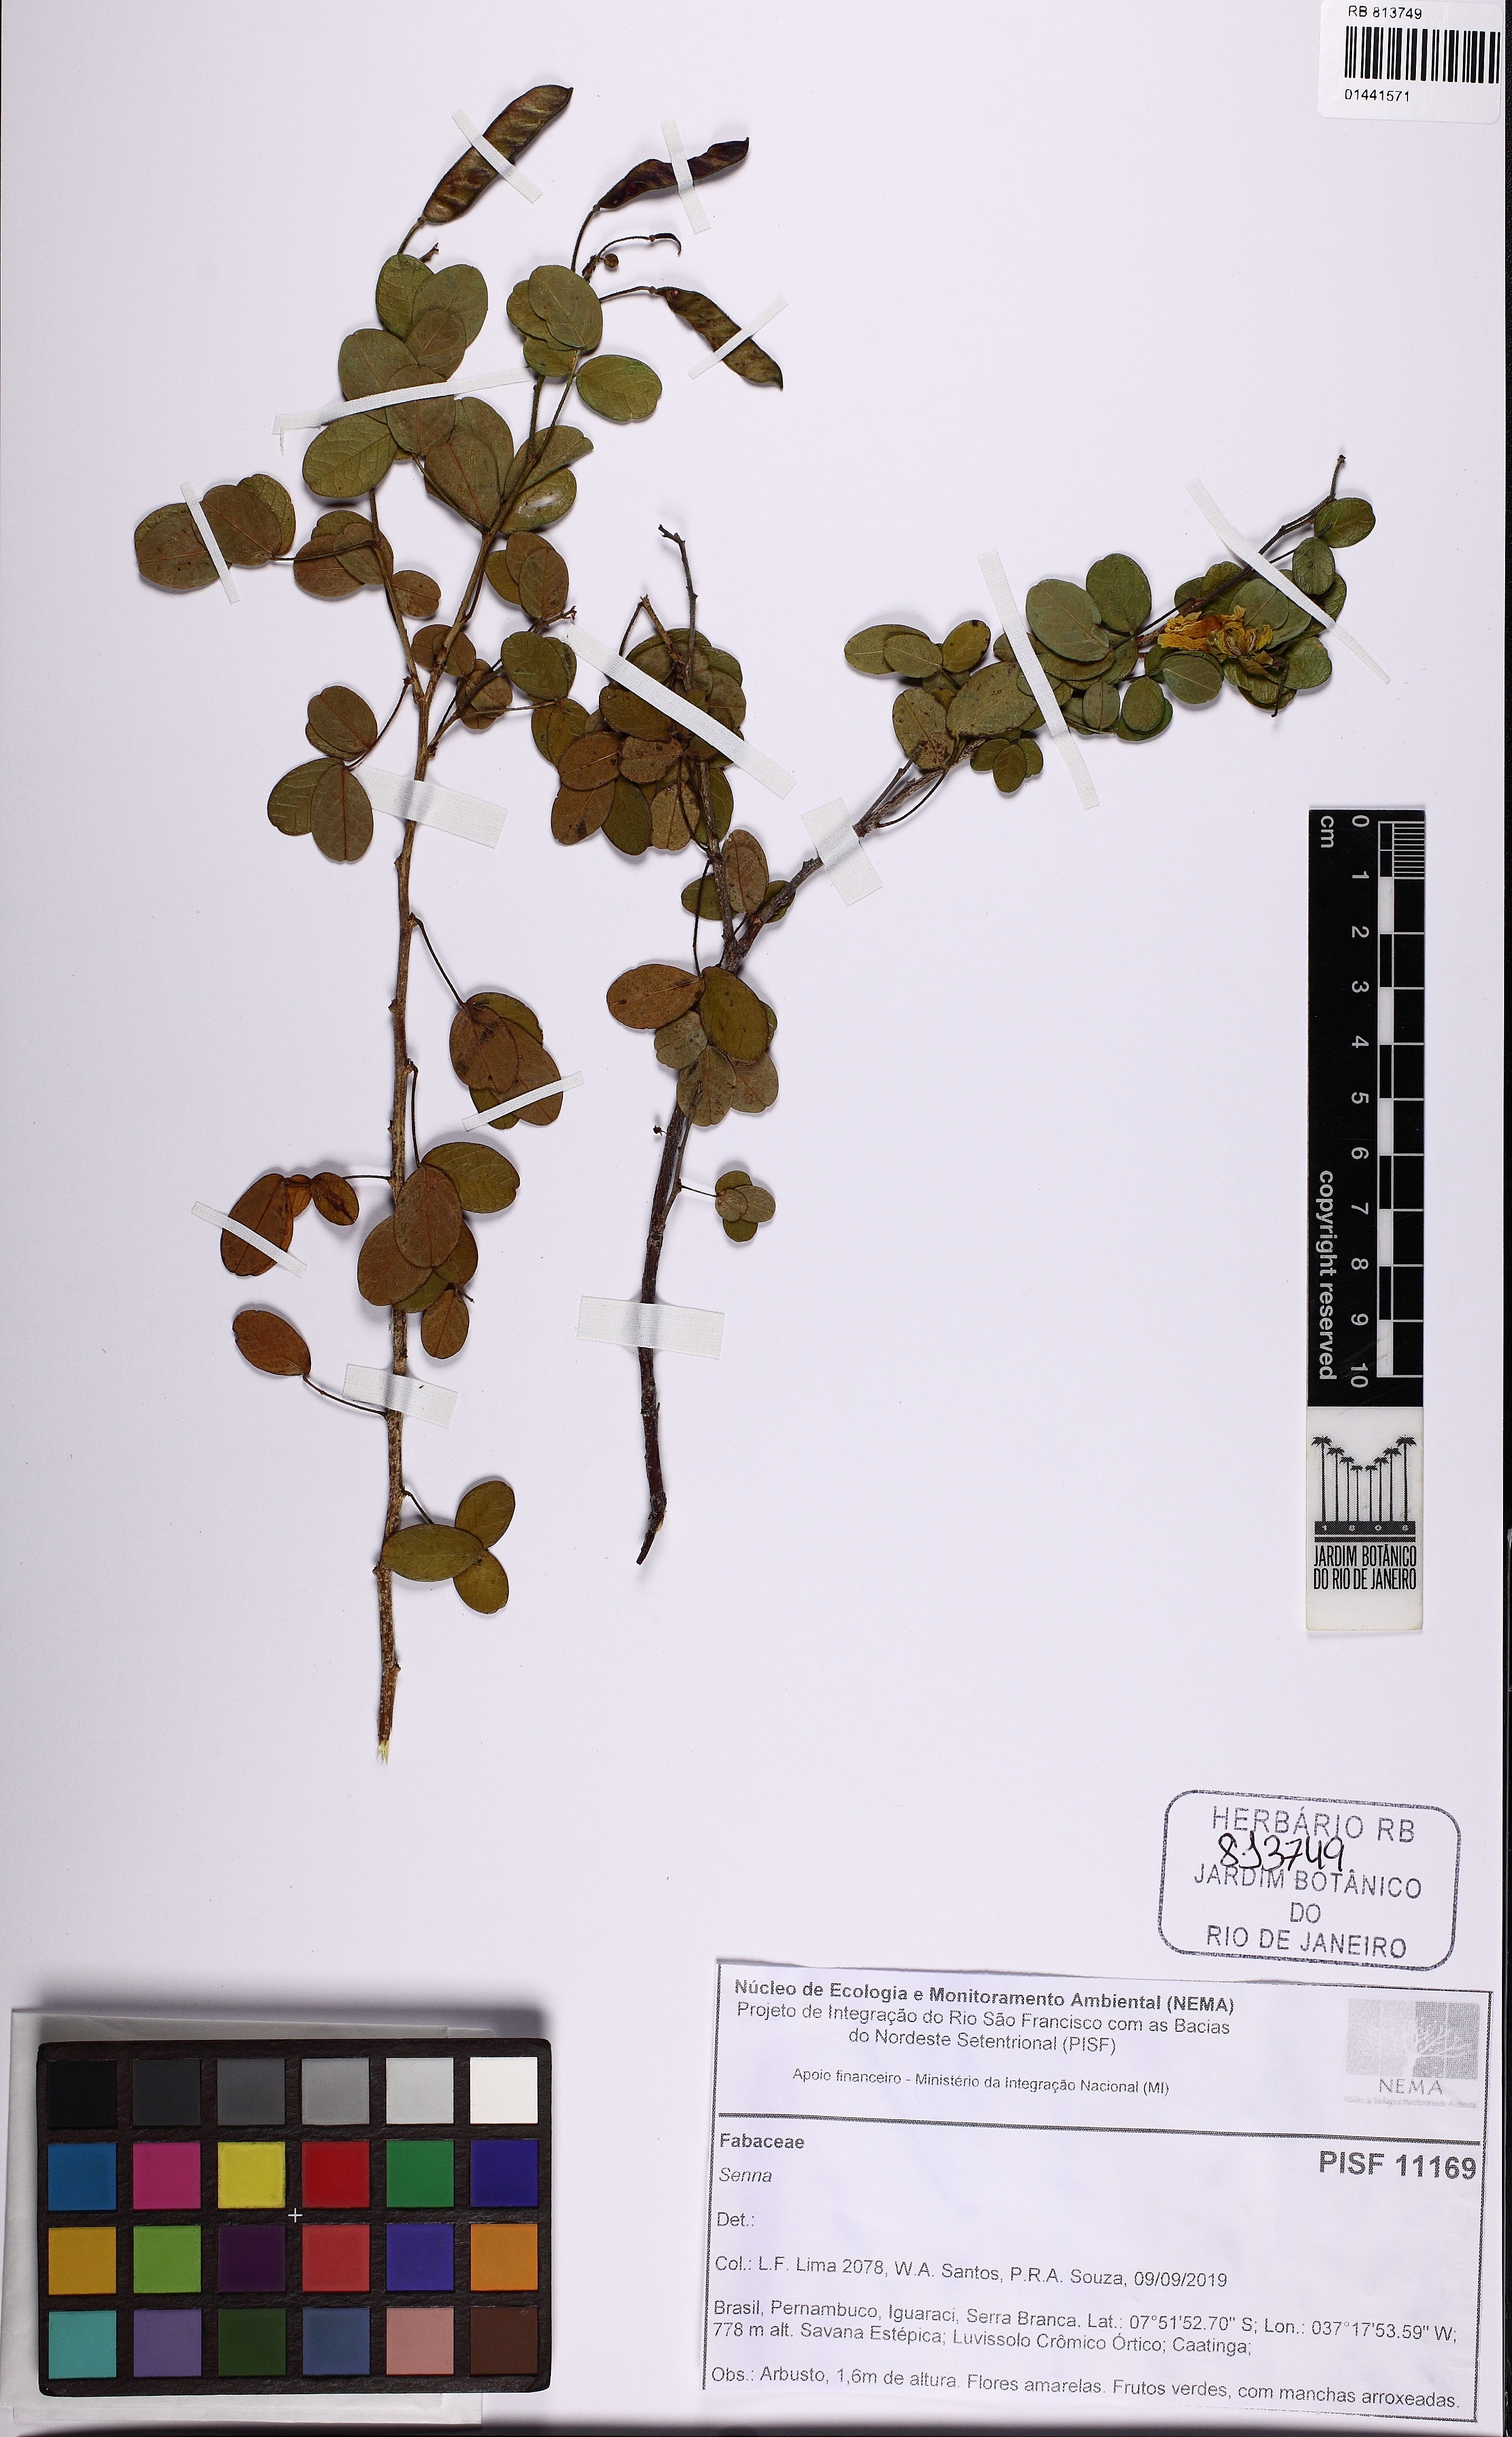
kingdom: Plantae
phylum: Tracheophyta
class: Magnoliopsida
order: Fabales
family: Fabaceae
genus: Senna
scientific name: Senna
